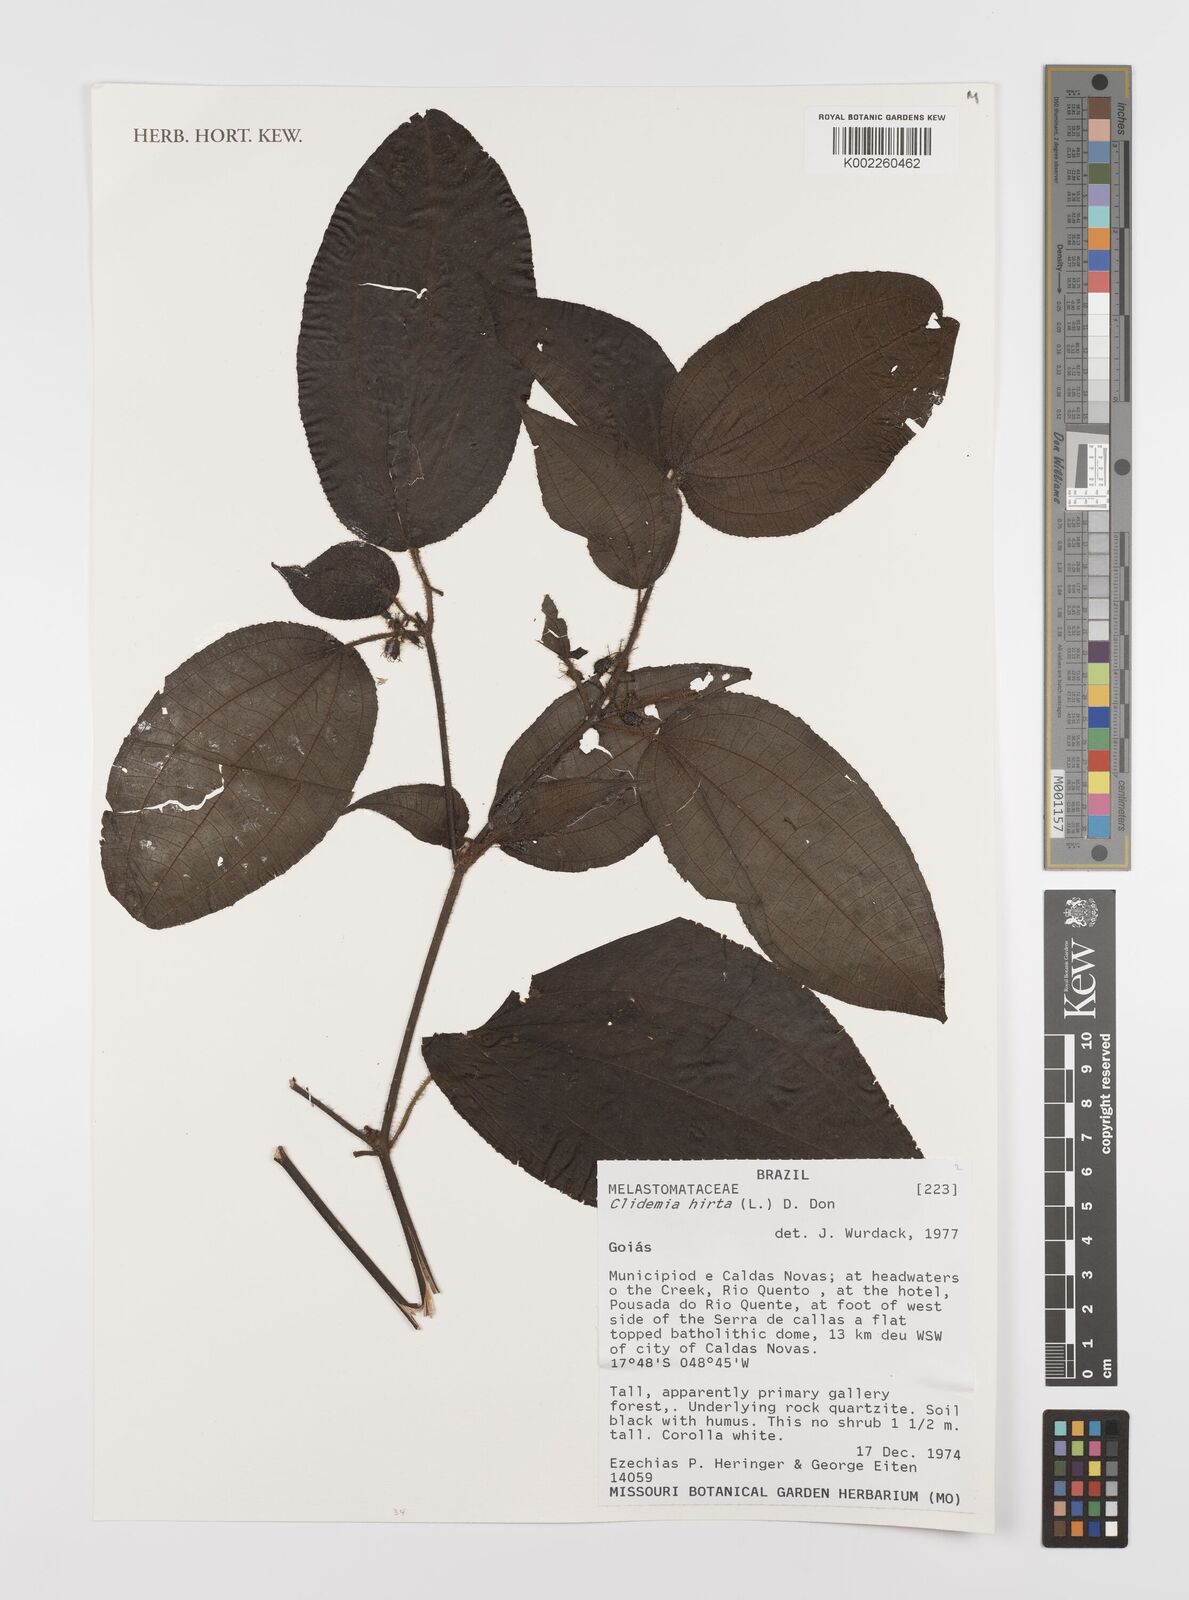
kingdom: Plantae
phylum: Tracheophyta
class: Magnoliopsida
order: Myrtales
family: Melastomataceae
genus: Miconia
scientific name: Miconia crenata
